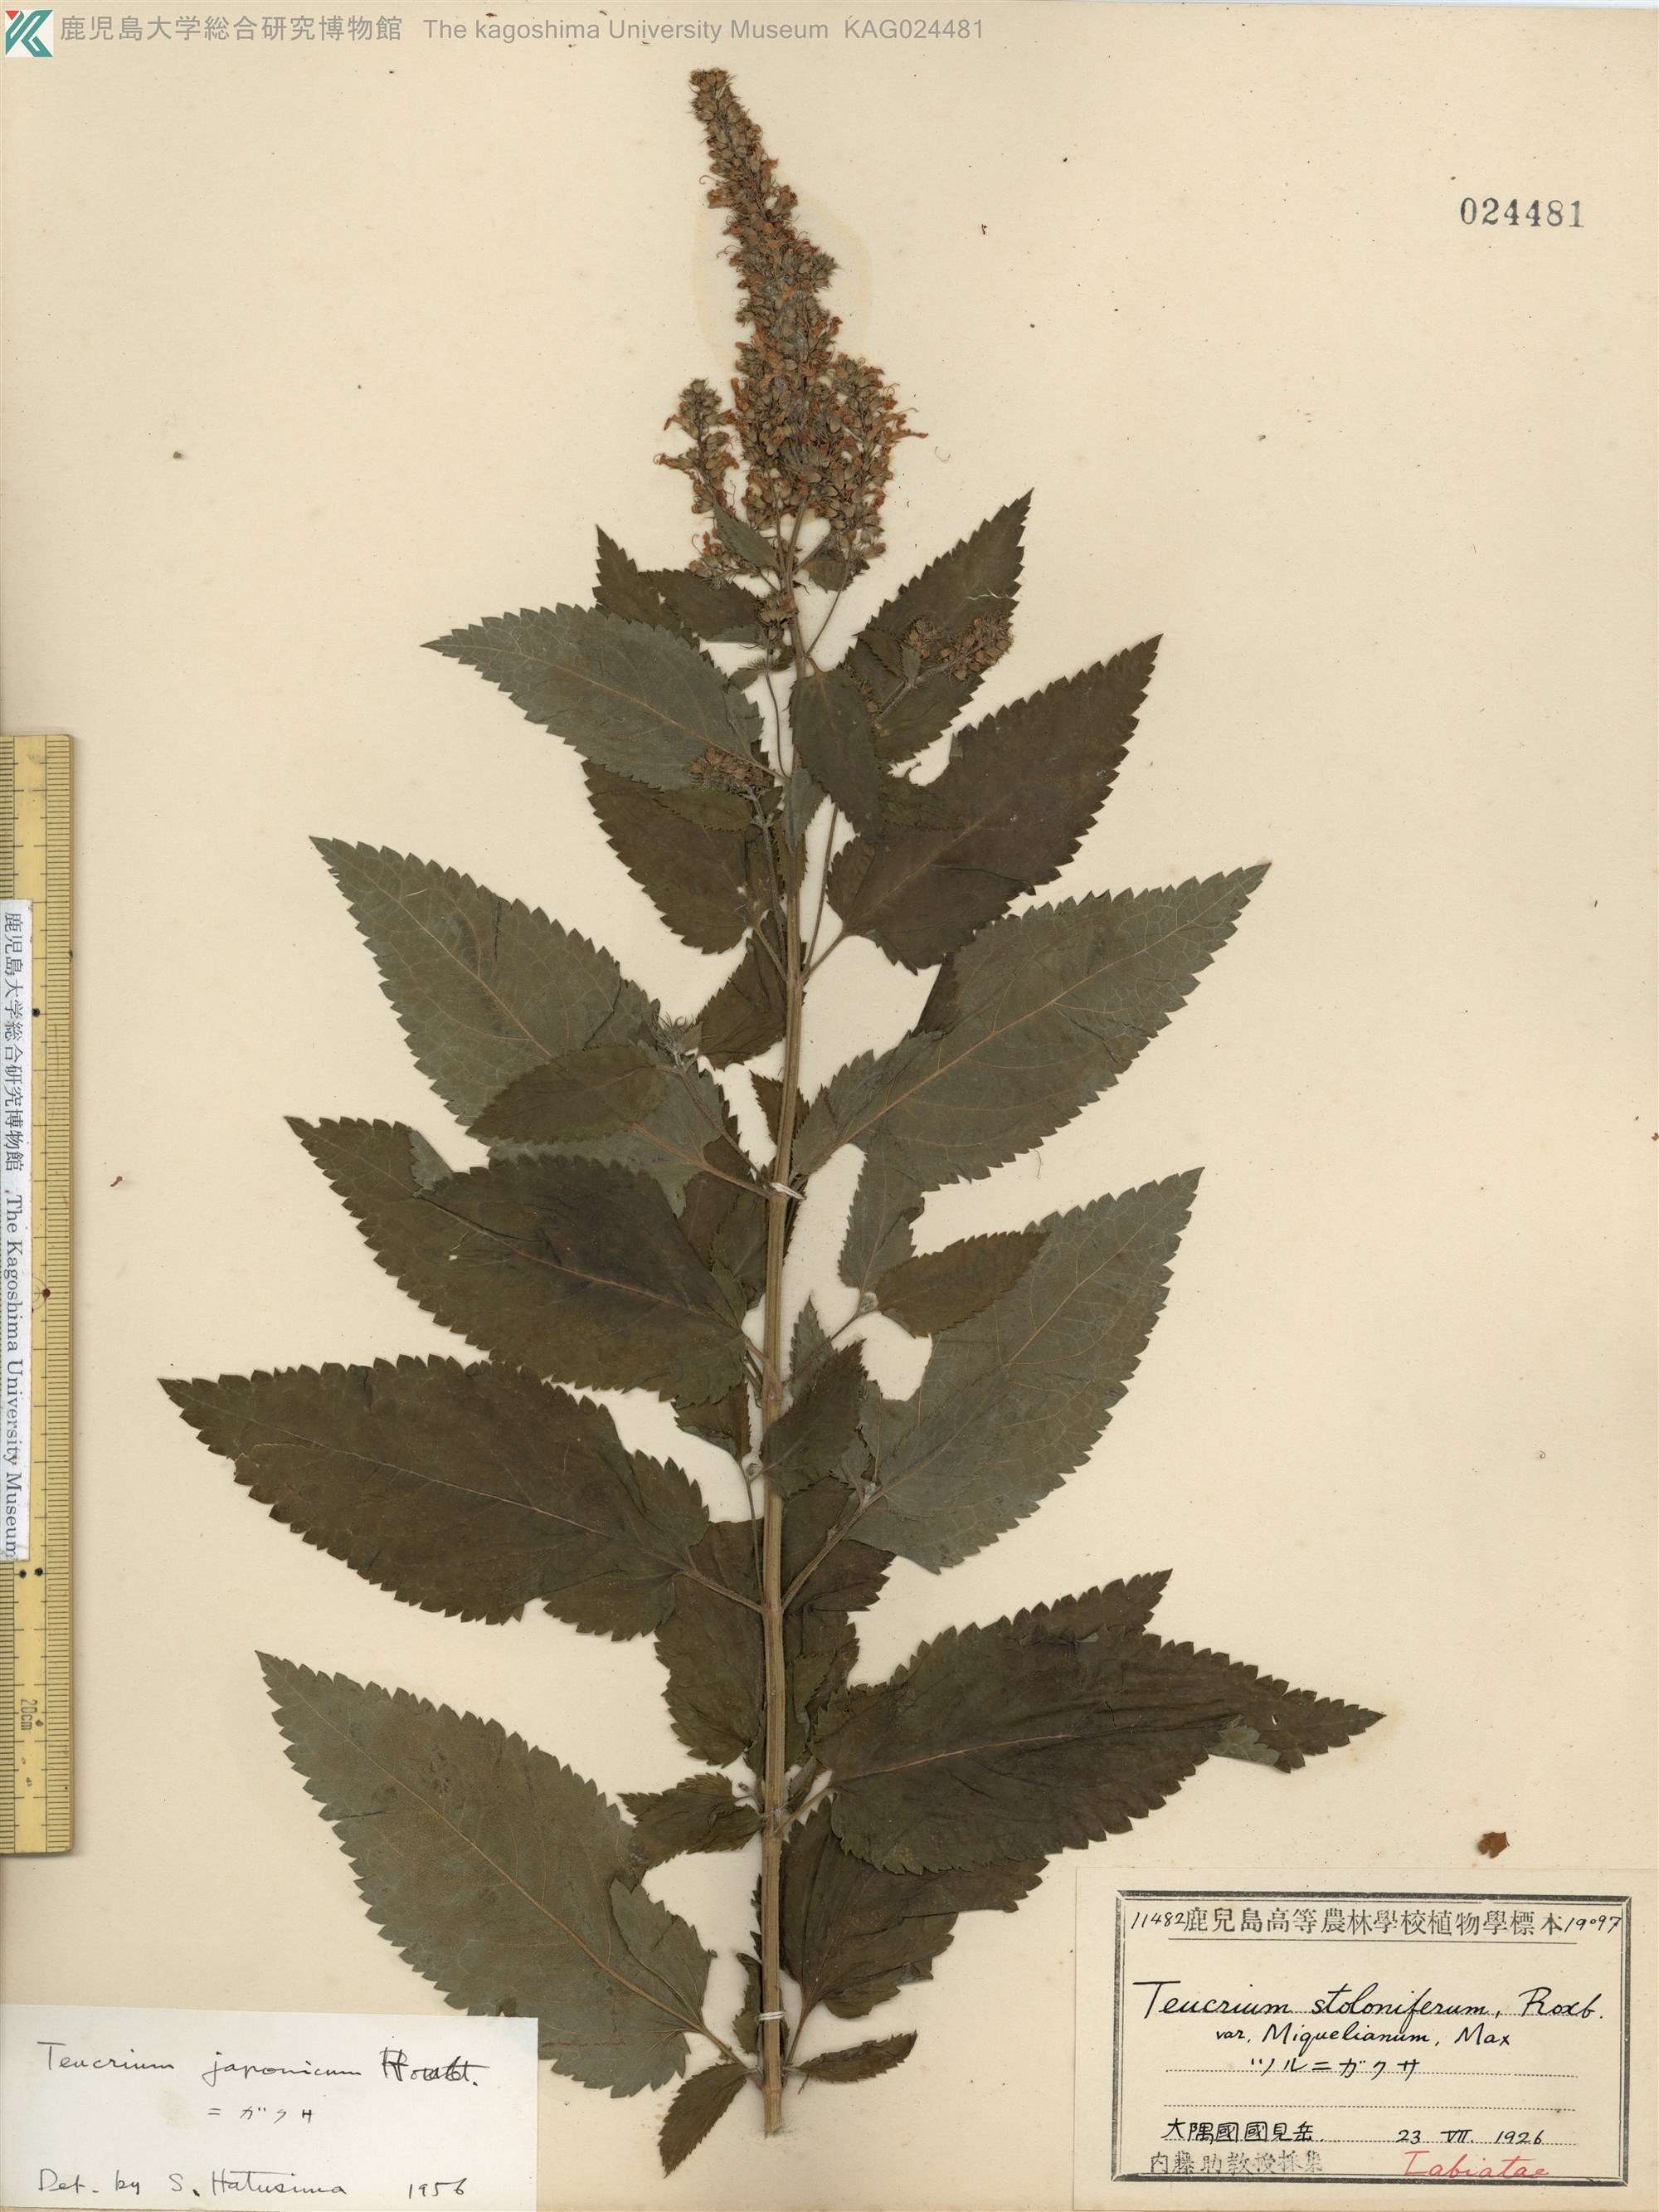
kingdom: Plantae
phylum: Tracheophyta
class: Magnoliopsida
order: Lamiales
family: Lamiaceae
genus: Teucrium
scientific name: Teucrium japonicum
